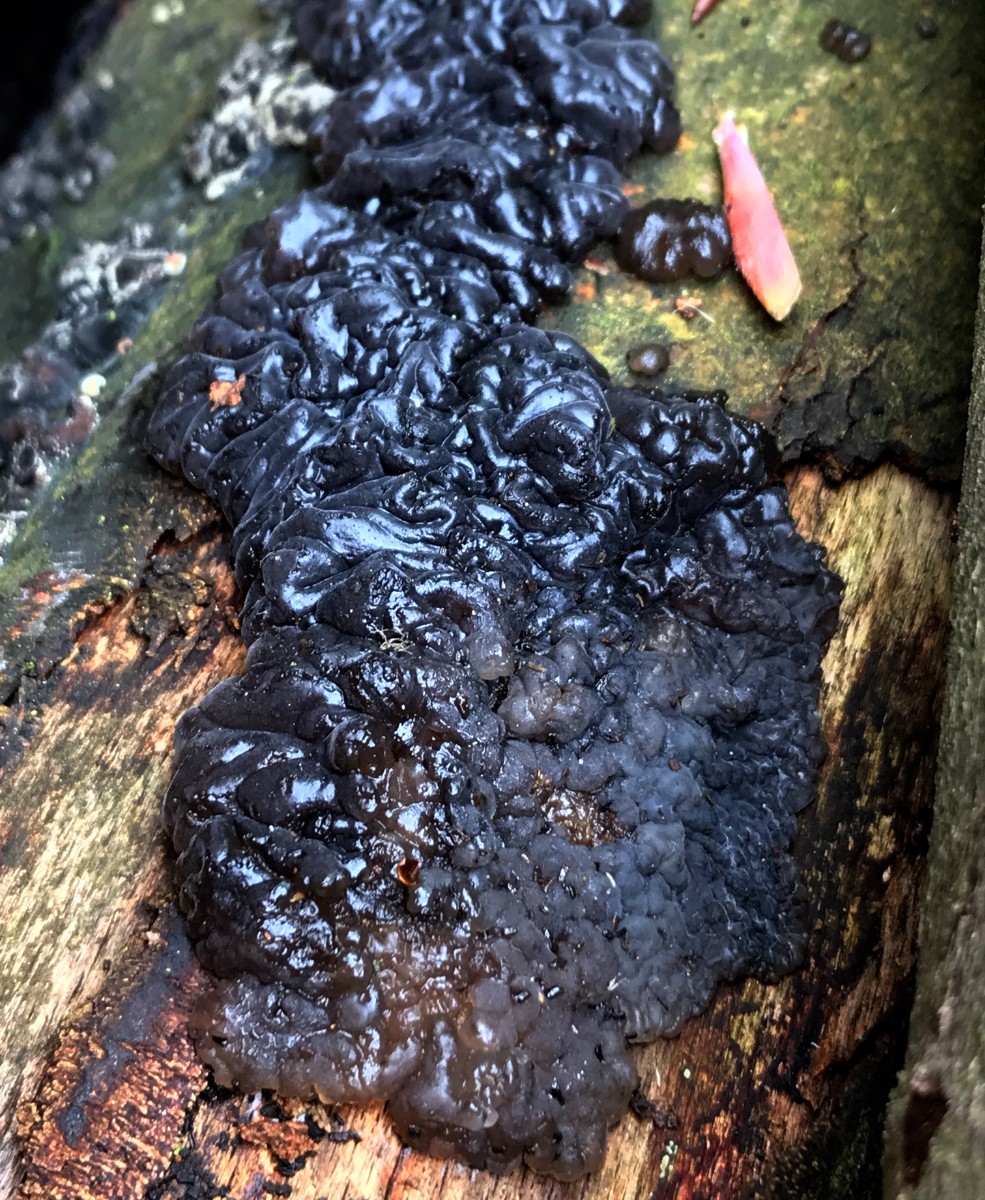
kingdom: Fungi
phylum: Basidiomycota
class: Agaricomycetes
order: Auriculariales
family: Auriculariaceae
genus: Exidia
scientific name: Exidia nigricans
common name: almindelig bævretop
